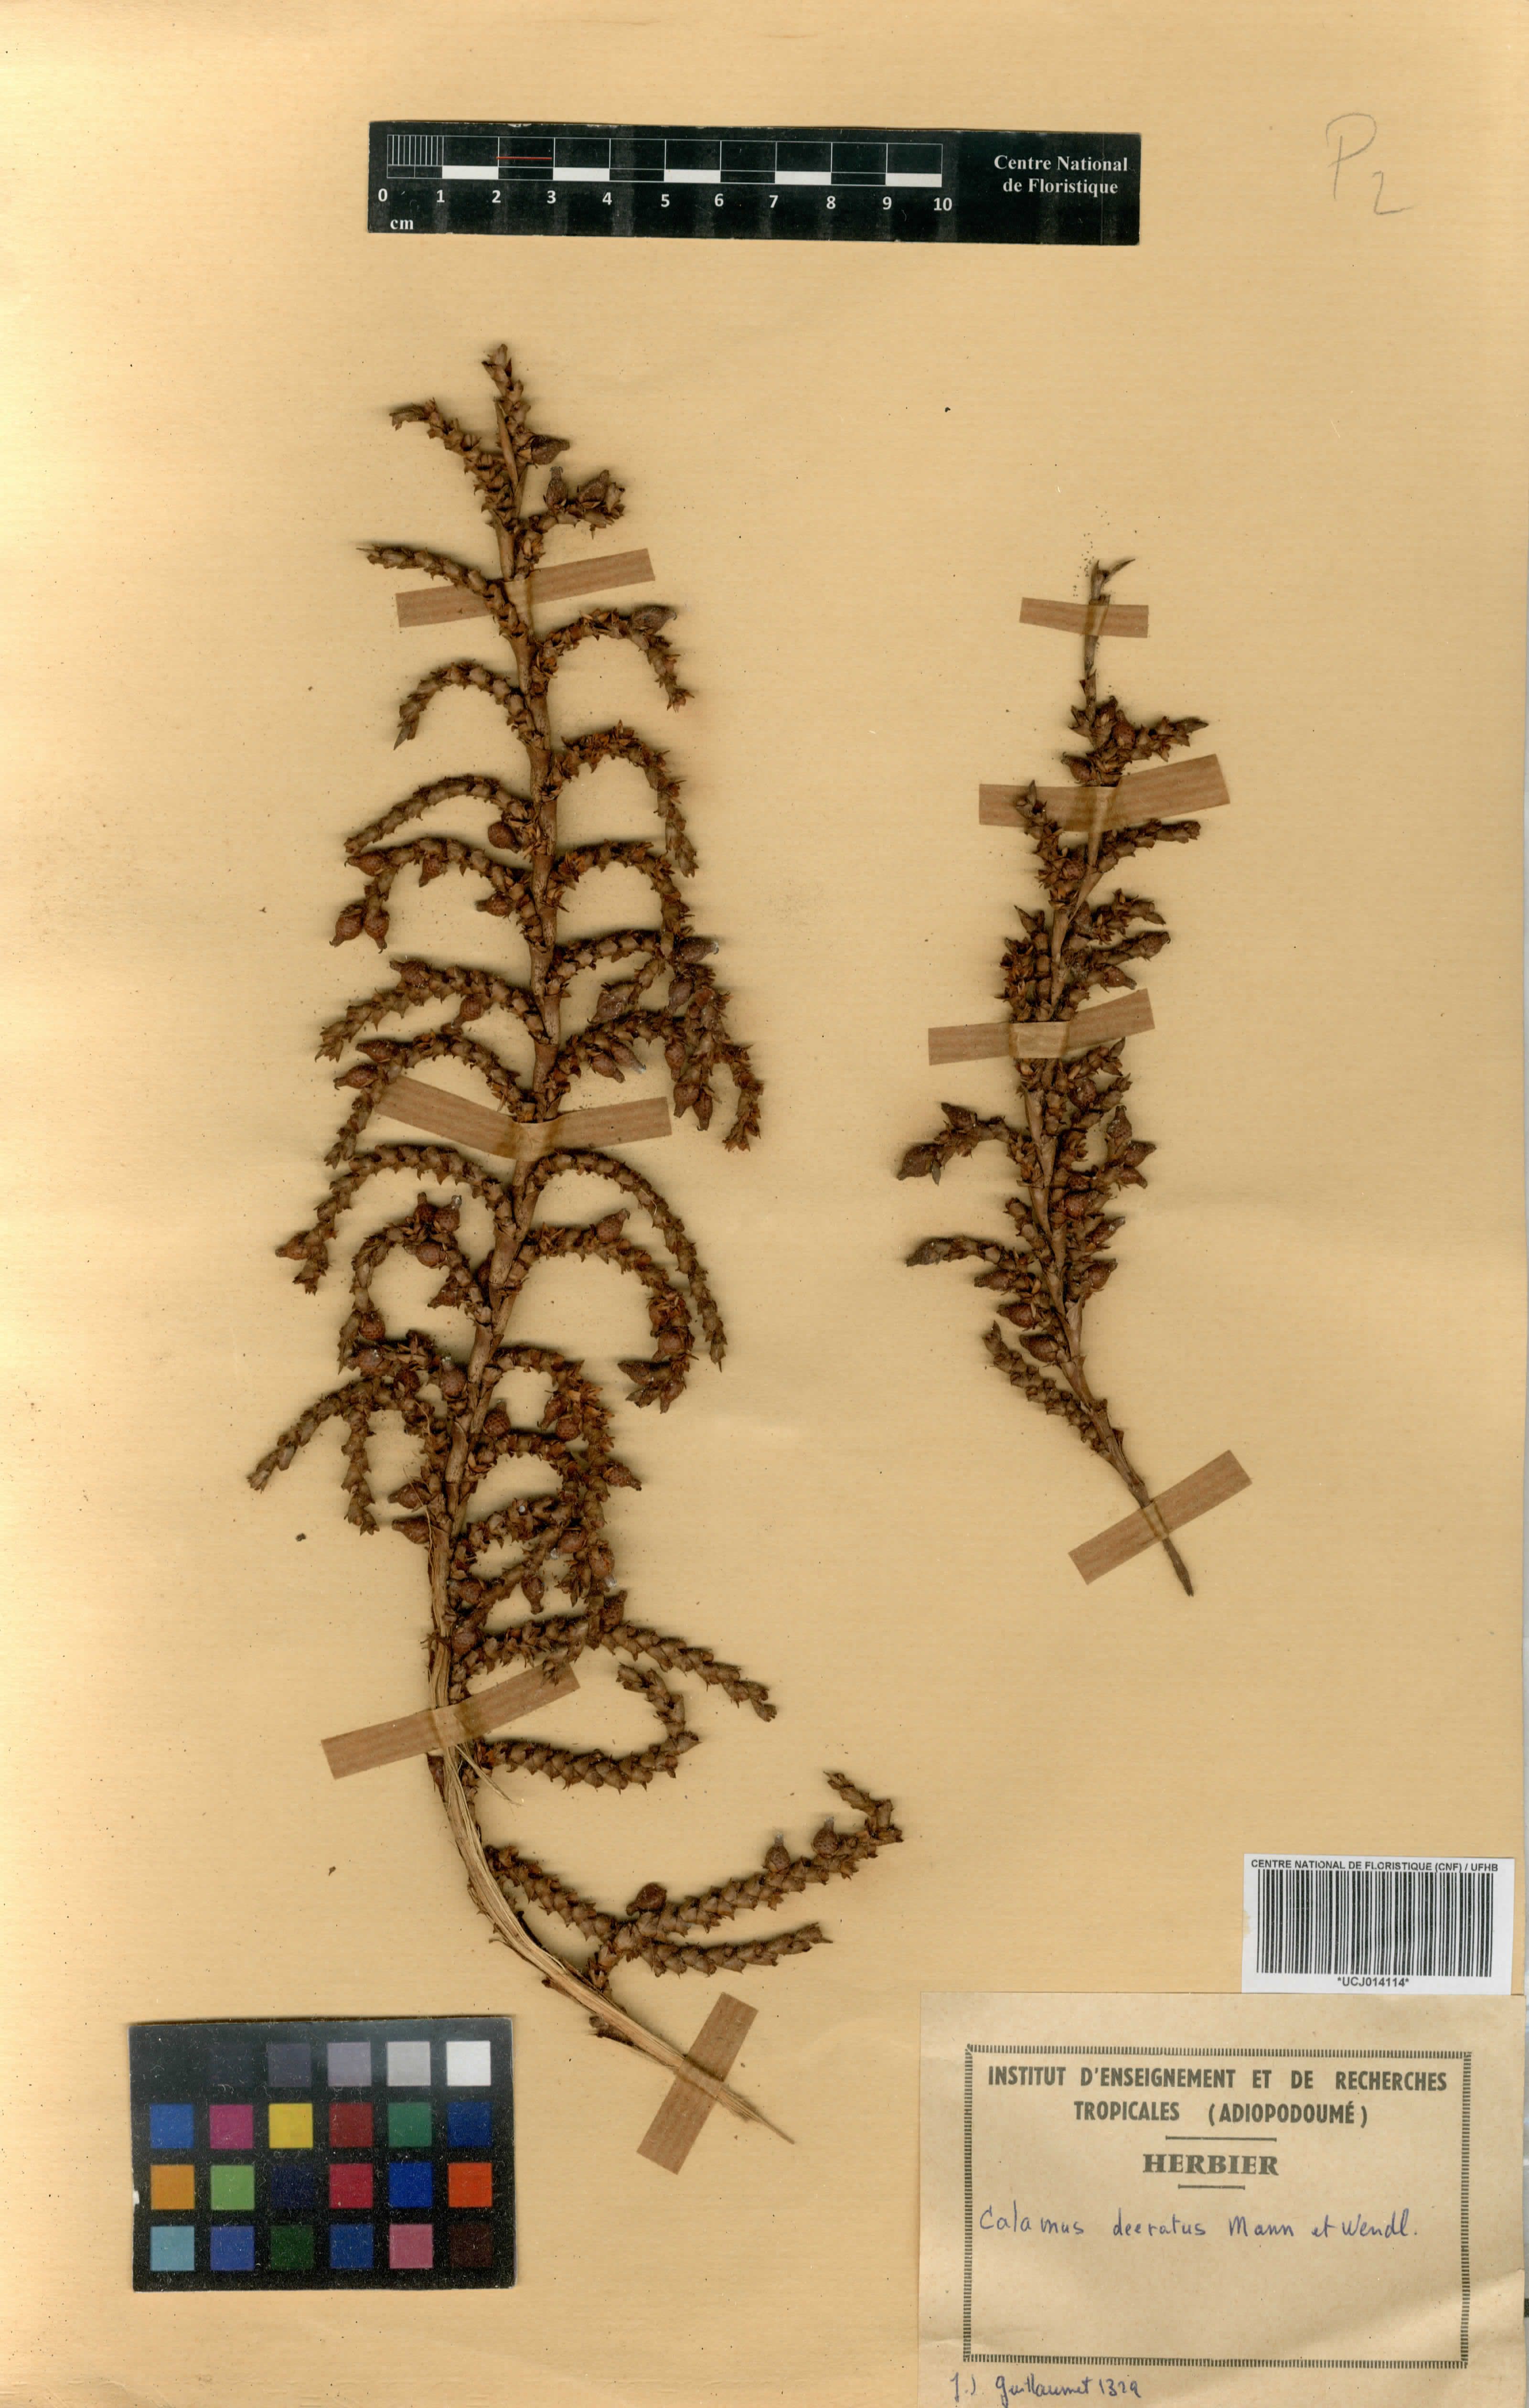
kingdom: Plantae
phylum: Tracheophyta
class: Liliopsida
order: Arecales
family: Arecaceae
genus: Calamus
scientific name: Calamus deerratus
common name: Rattan
